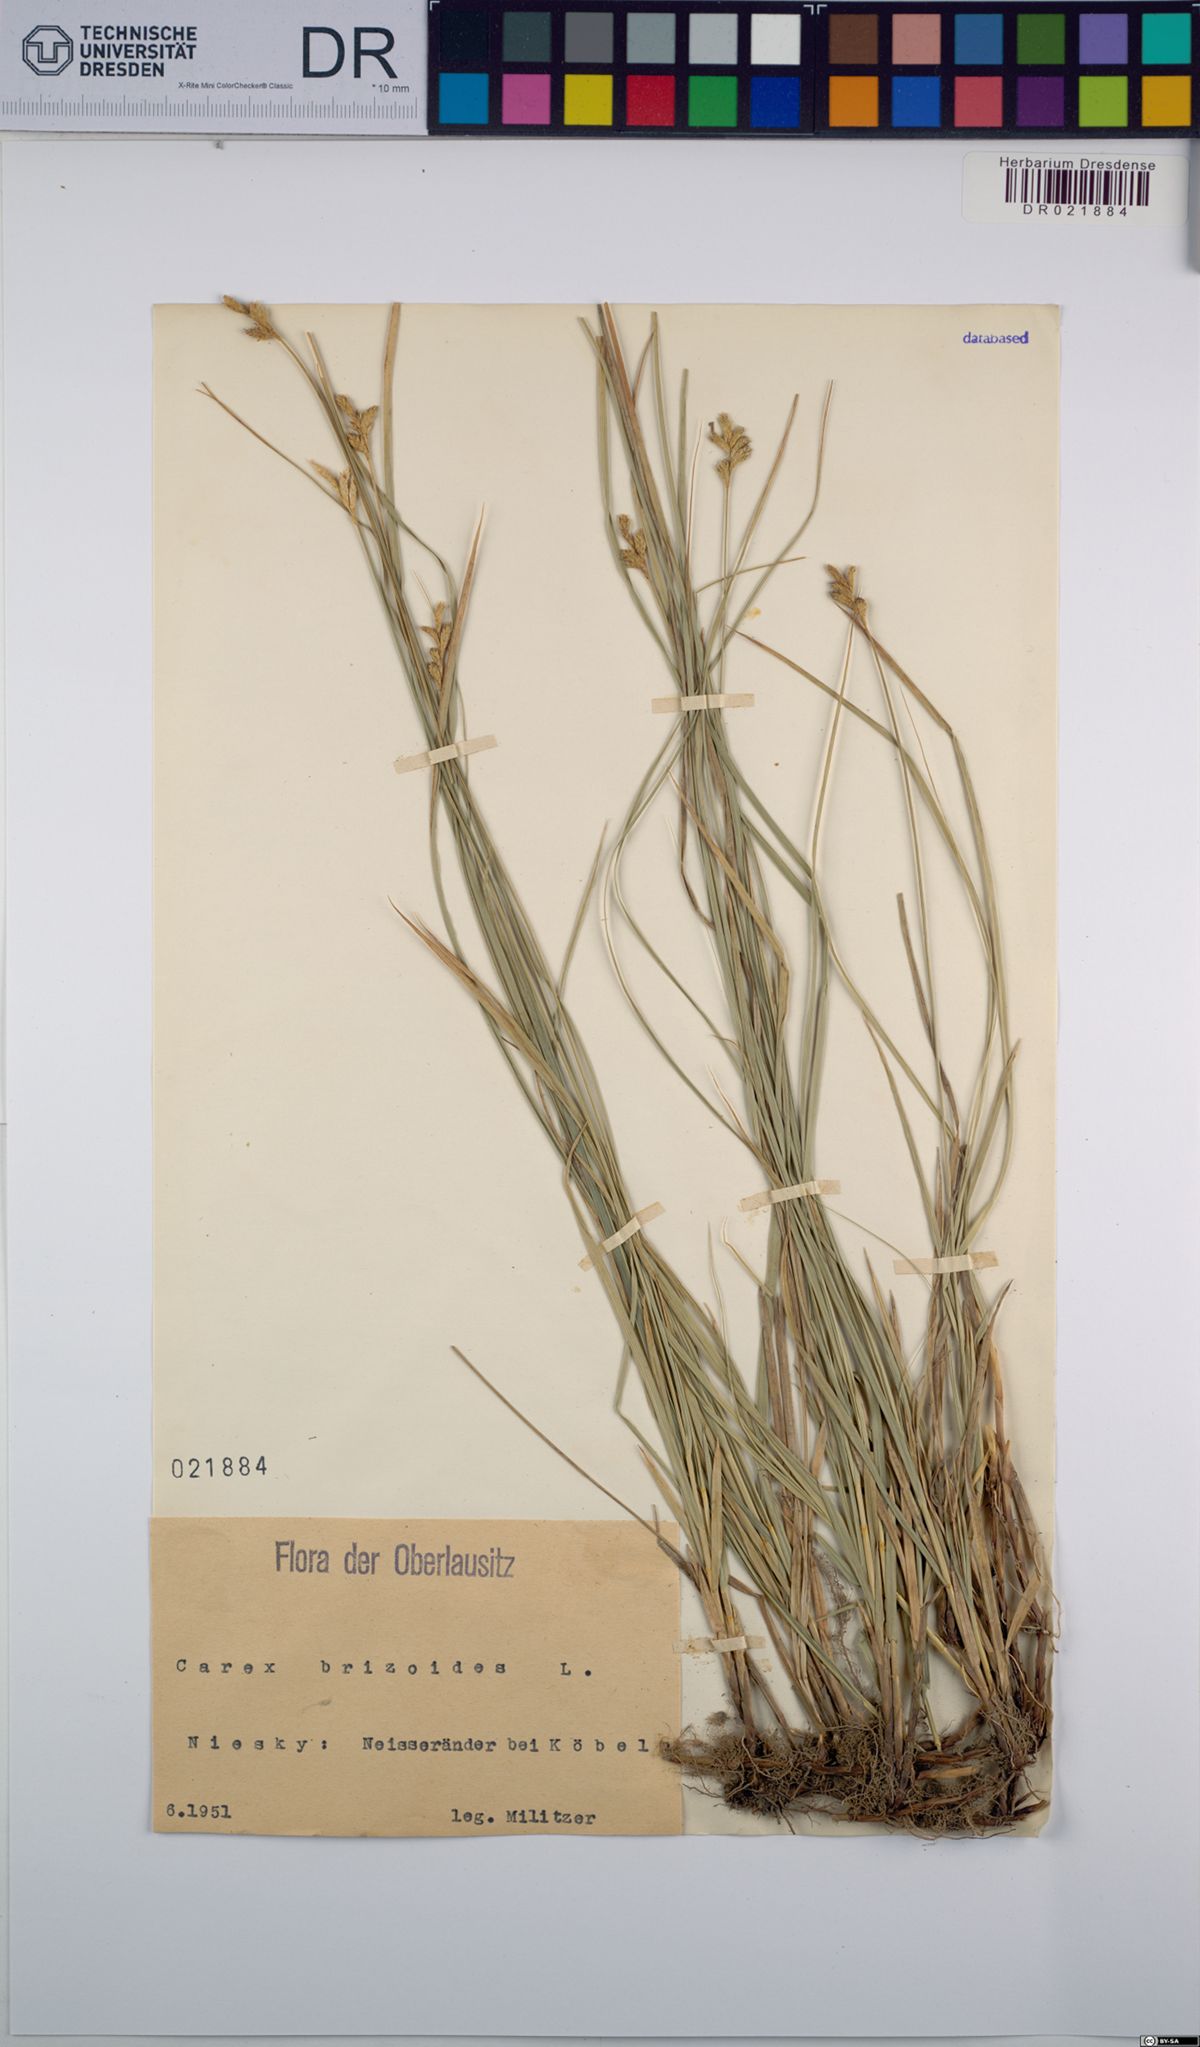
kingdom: Plantae
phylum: Tracheophyta
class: Liliopsida
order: Poales
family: Cyperaceae
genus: Carex
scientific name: Carex brizoides
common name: Quaking-grass sedge
